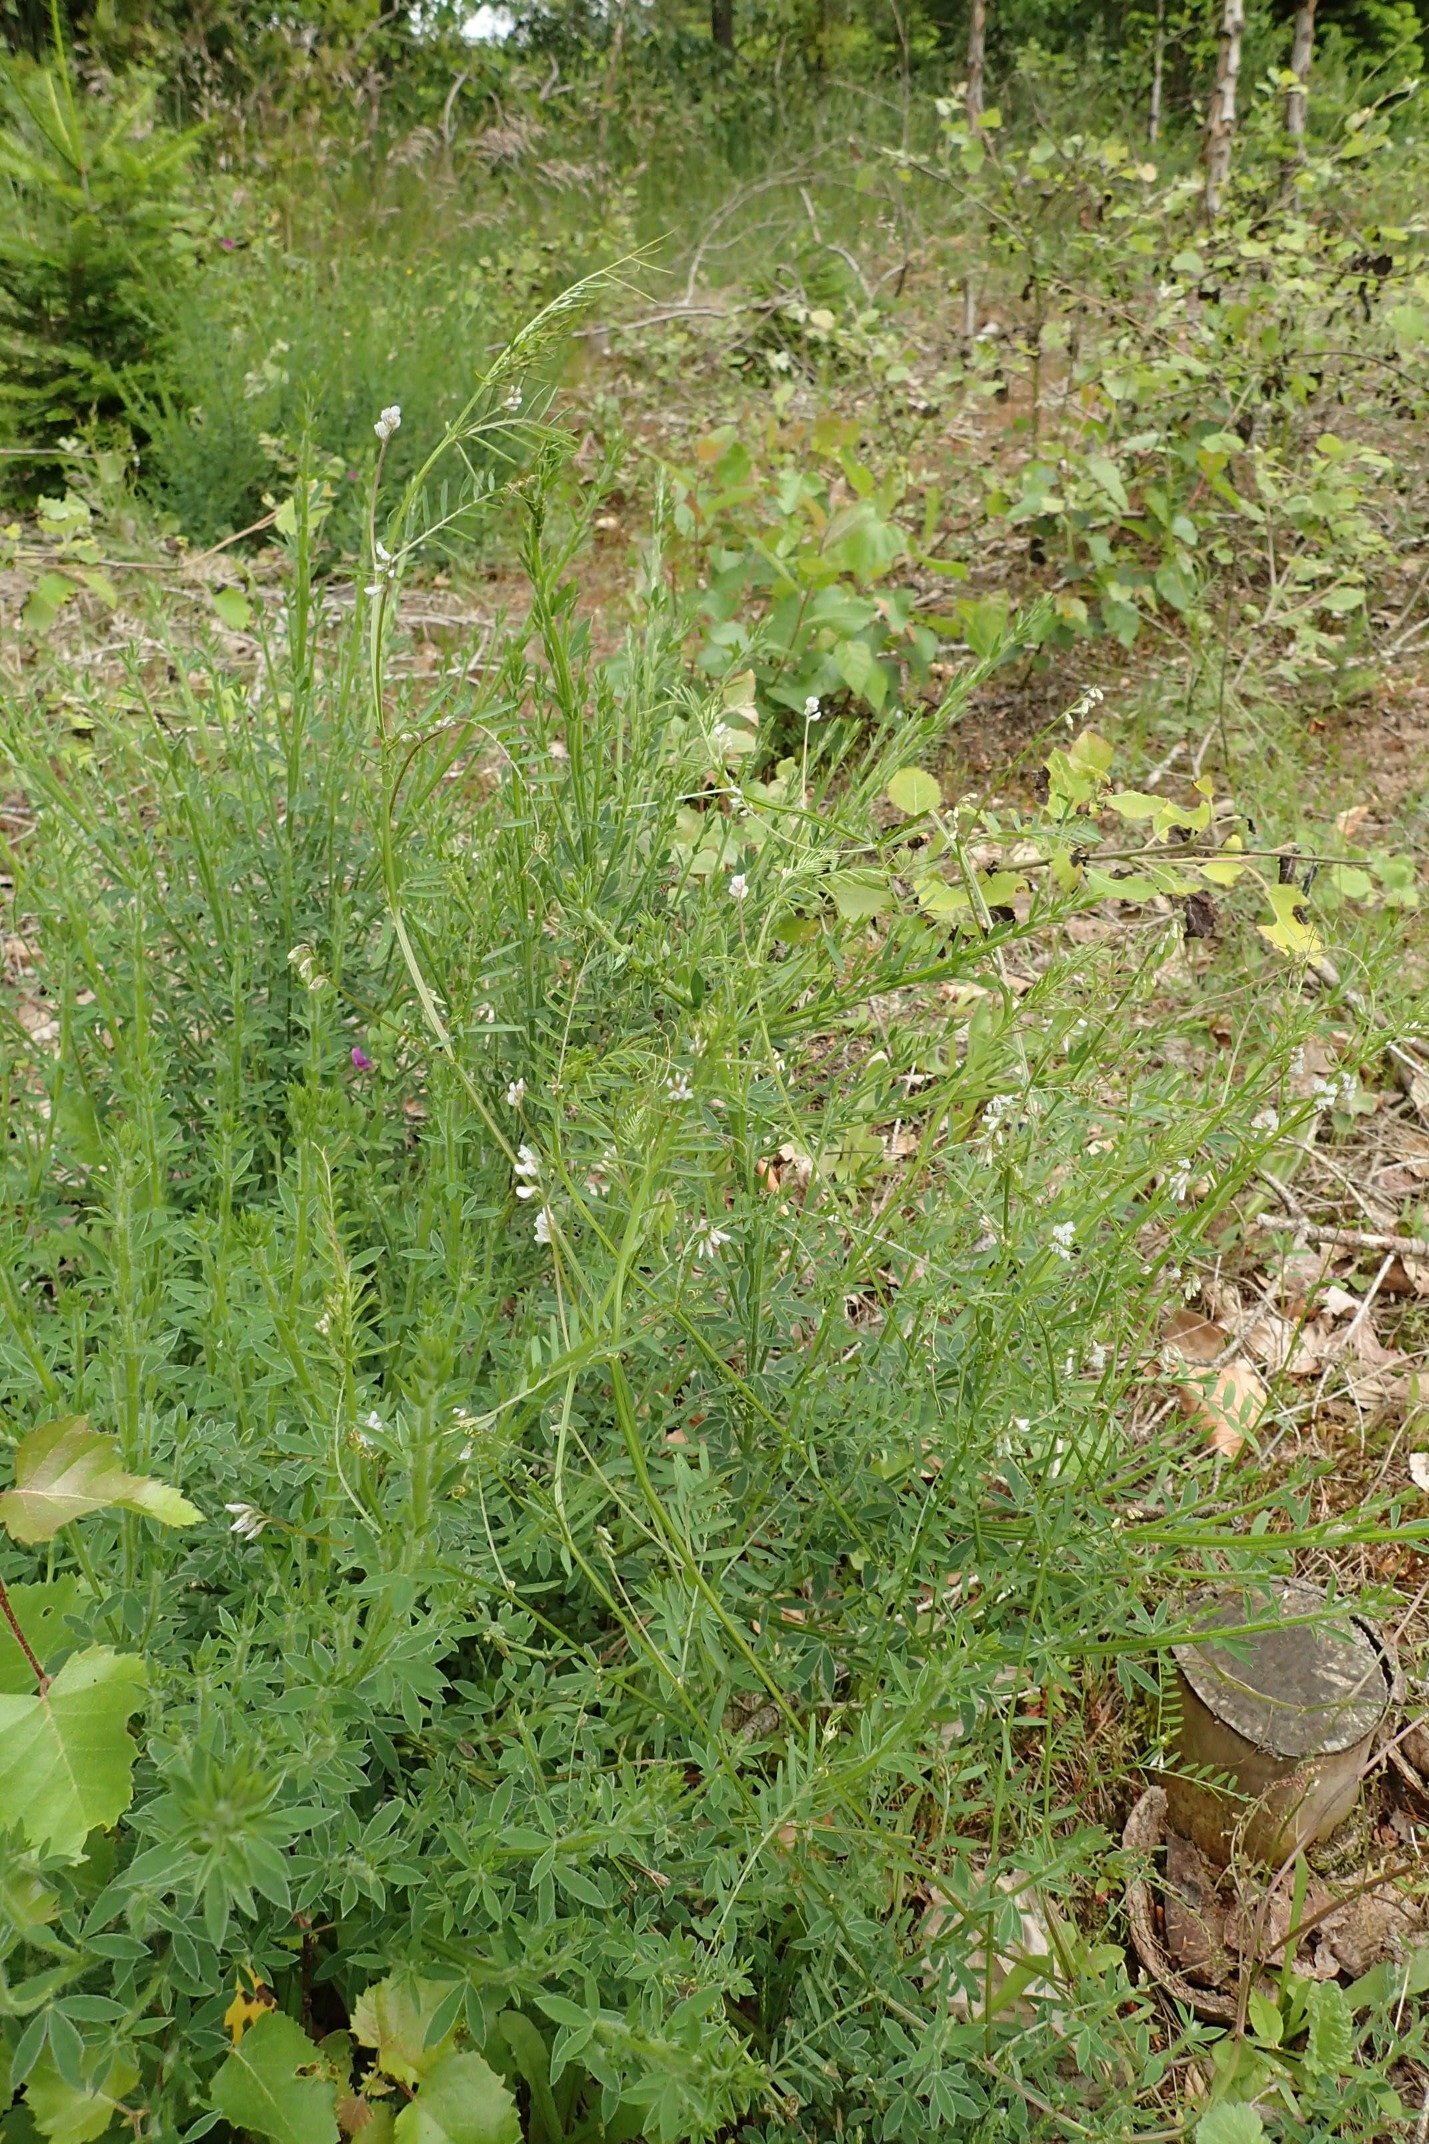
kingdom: Plantae
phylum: Tracheophyta
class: Magnoliopsida
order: Fabales
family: Fabaceae
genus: Vicia
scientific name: Vicia hirsuta
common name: Tofrøet vikke
